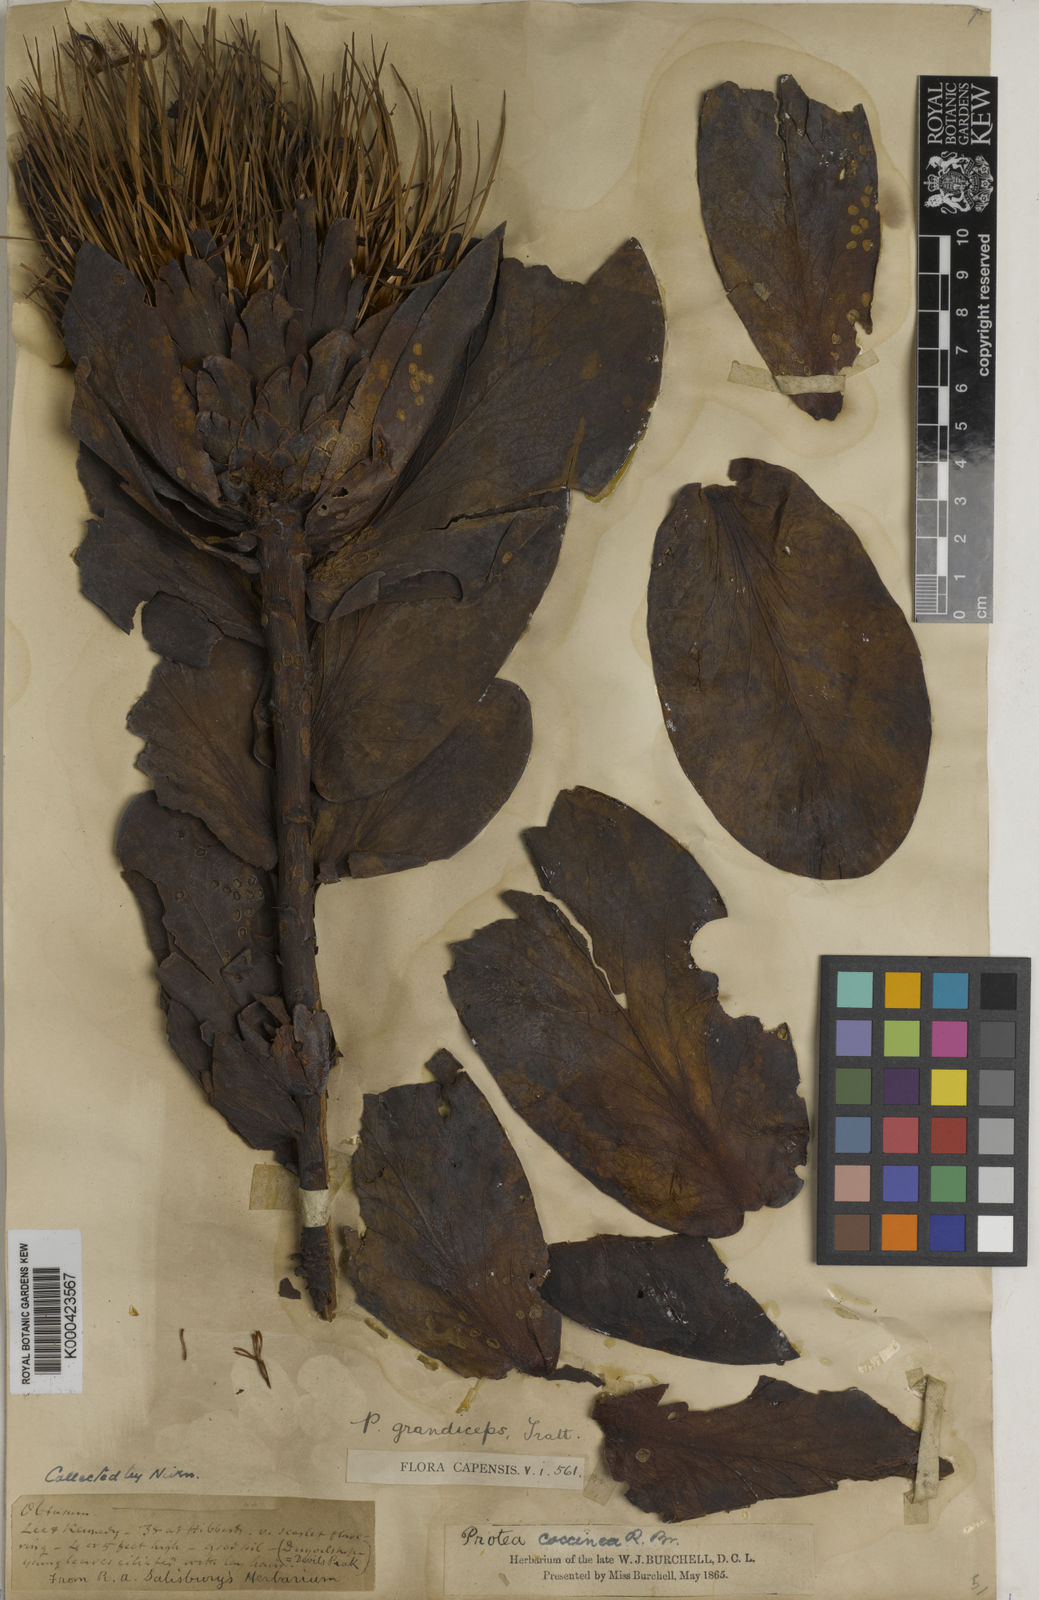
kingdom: Plantae
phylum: Tracheophyta
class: Magnoliopsida
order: Proteales
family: Proteaceae
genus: Protea
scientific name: Protea grandiceps
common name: Red sugarbush
